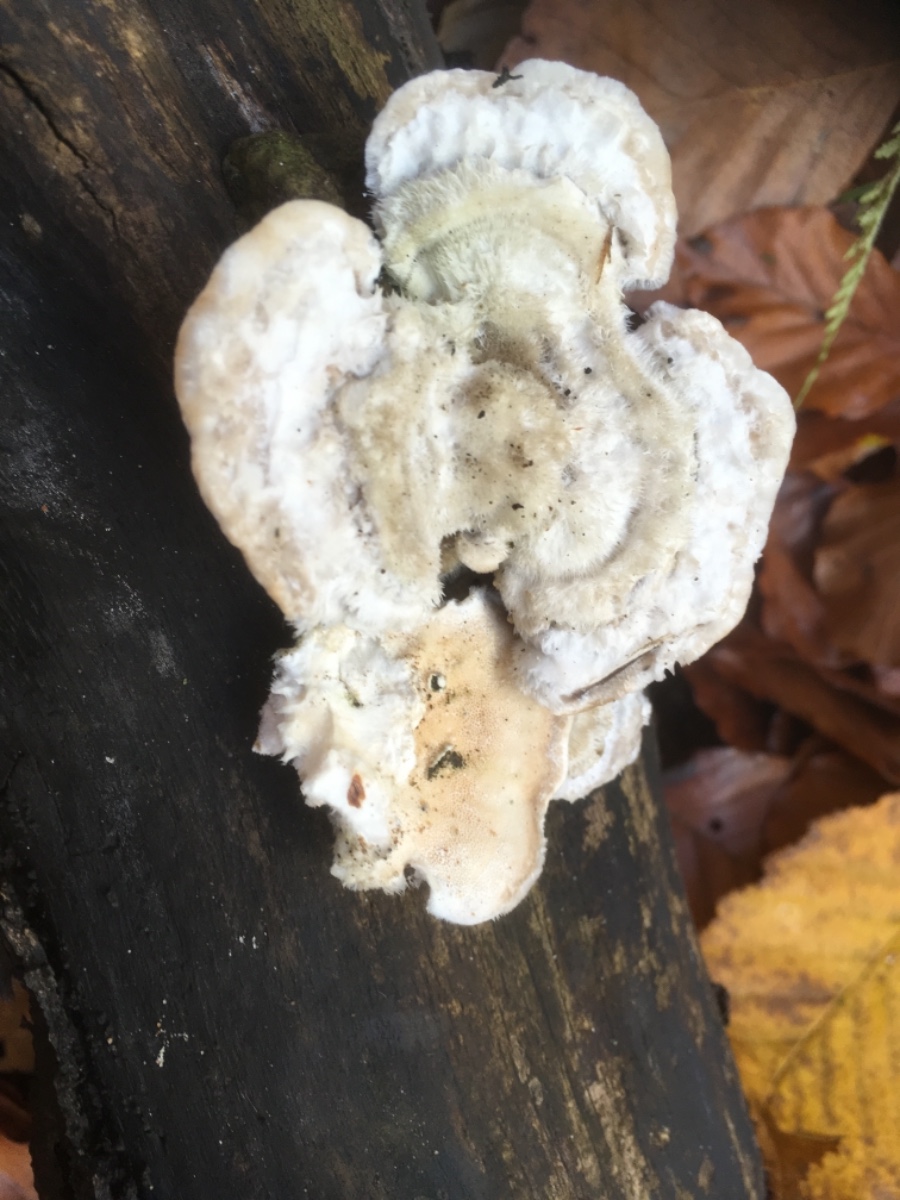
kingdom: Fungi
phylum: Basidiomycota
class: Agaricomycetes
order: Polyporales
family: Polyporaceae
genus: Trametes
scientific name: Trametes hirsuta
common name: håret læderporesvamp
